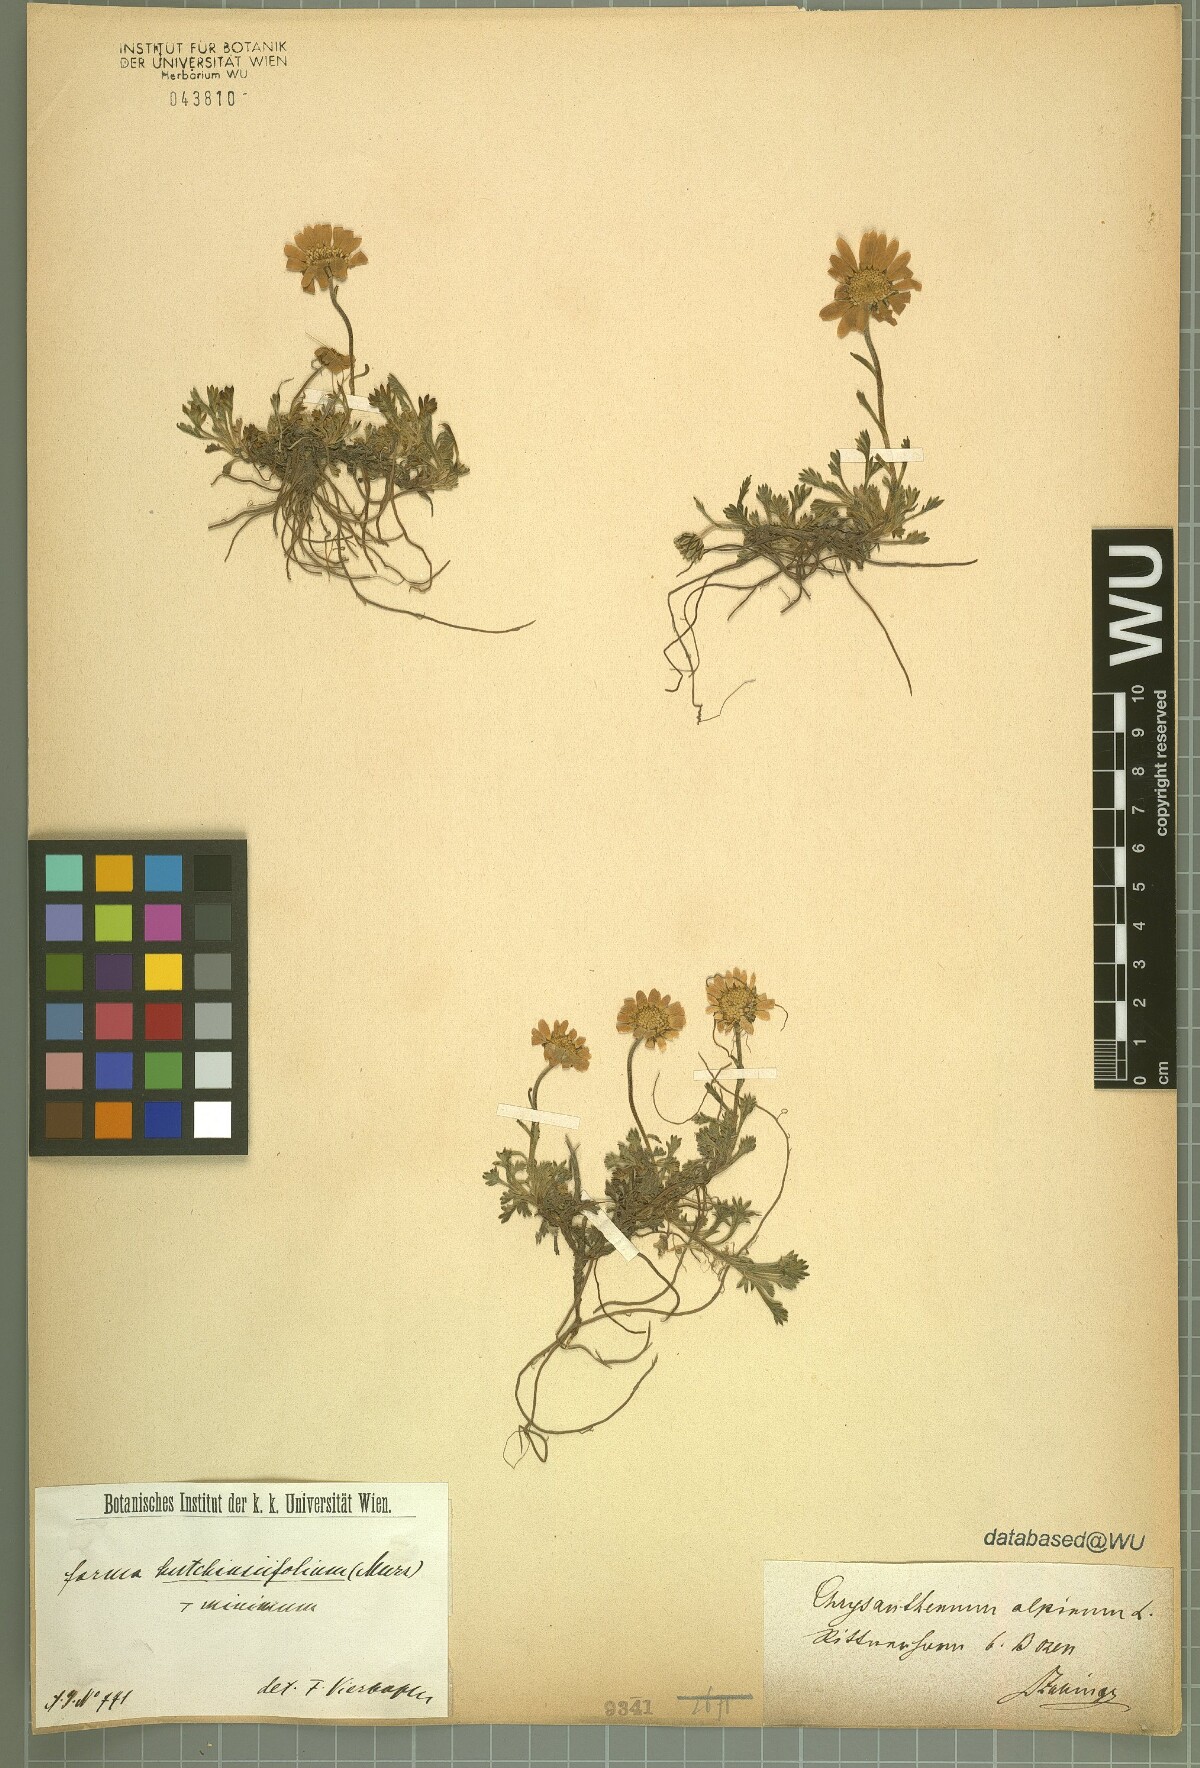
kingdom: Plantae
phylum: Tracheophyta
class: Magnoliopsida
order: Asterales
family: Asteraceae
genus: Leucanthemopsis
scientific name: Leucanthemopsis alpina
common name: Alpine moon daisy
